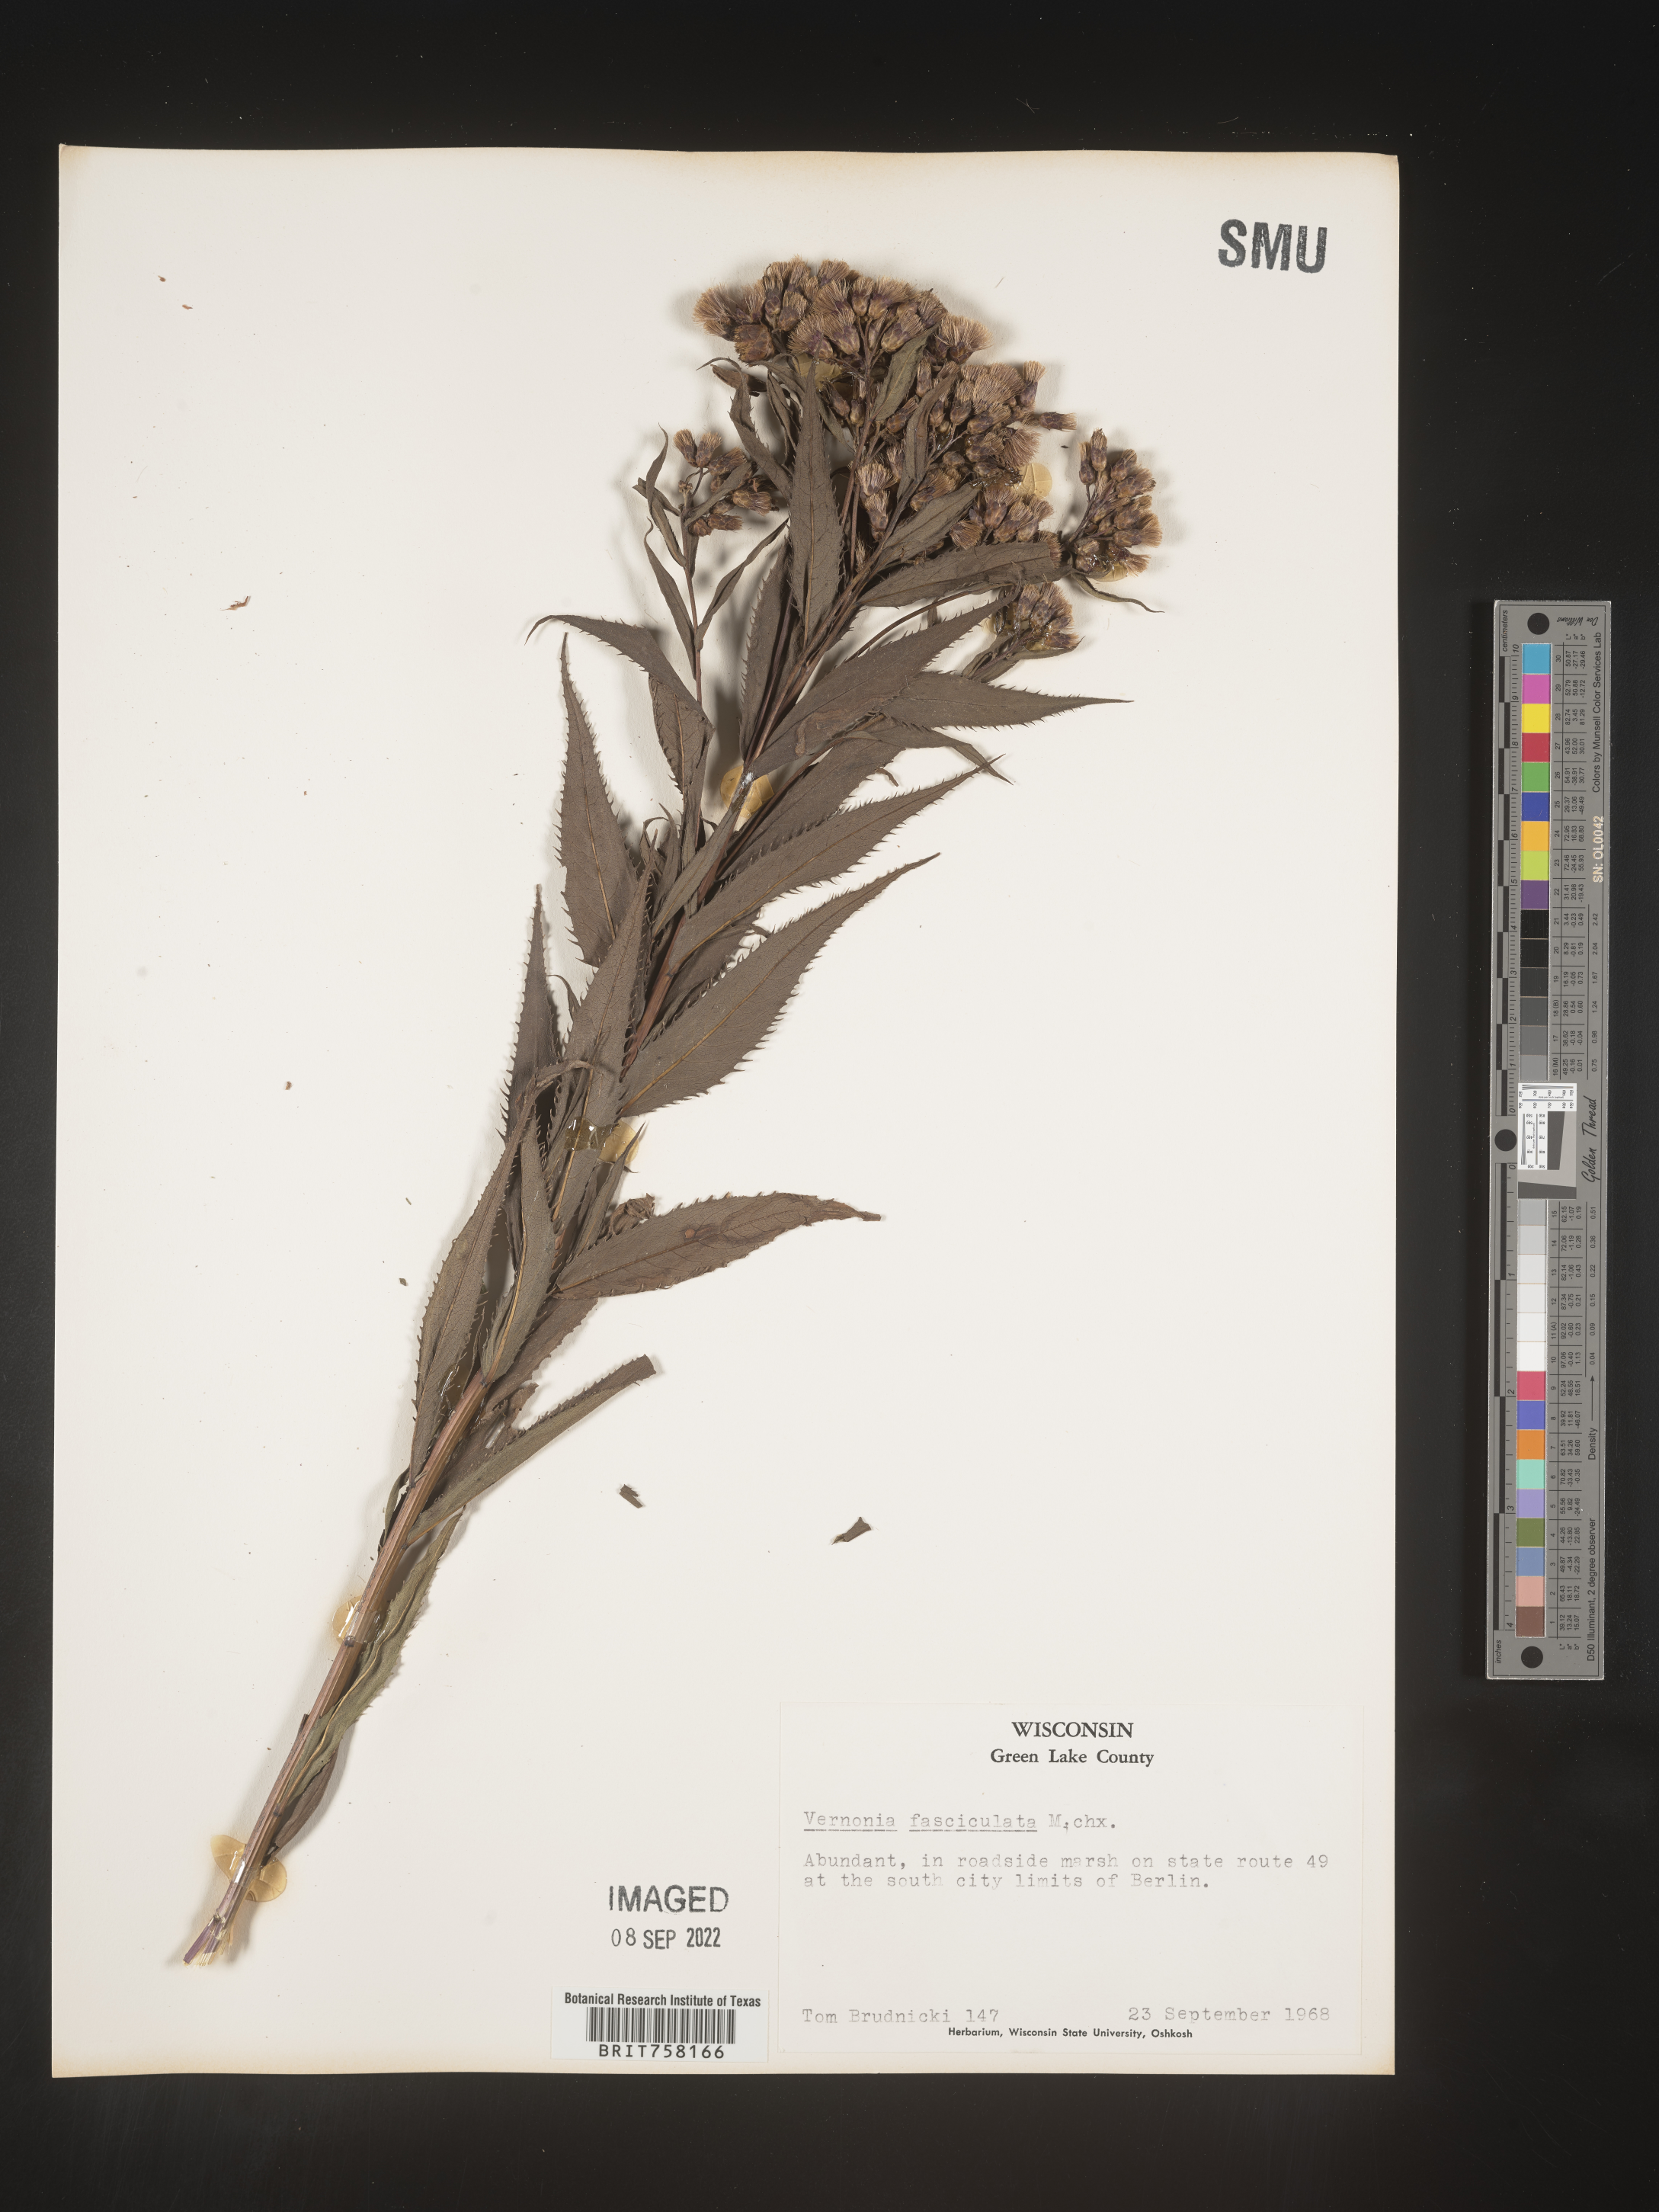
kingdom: Plantae
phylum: Tracheophyta
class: Magnoliopsida
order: Asterales
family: Asteraceae
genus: Vernonia
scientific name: Vernonia fasciculata
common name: Fascicled ironweed
